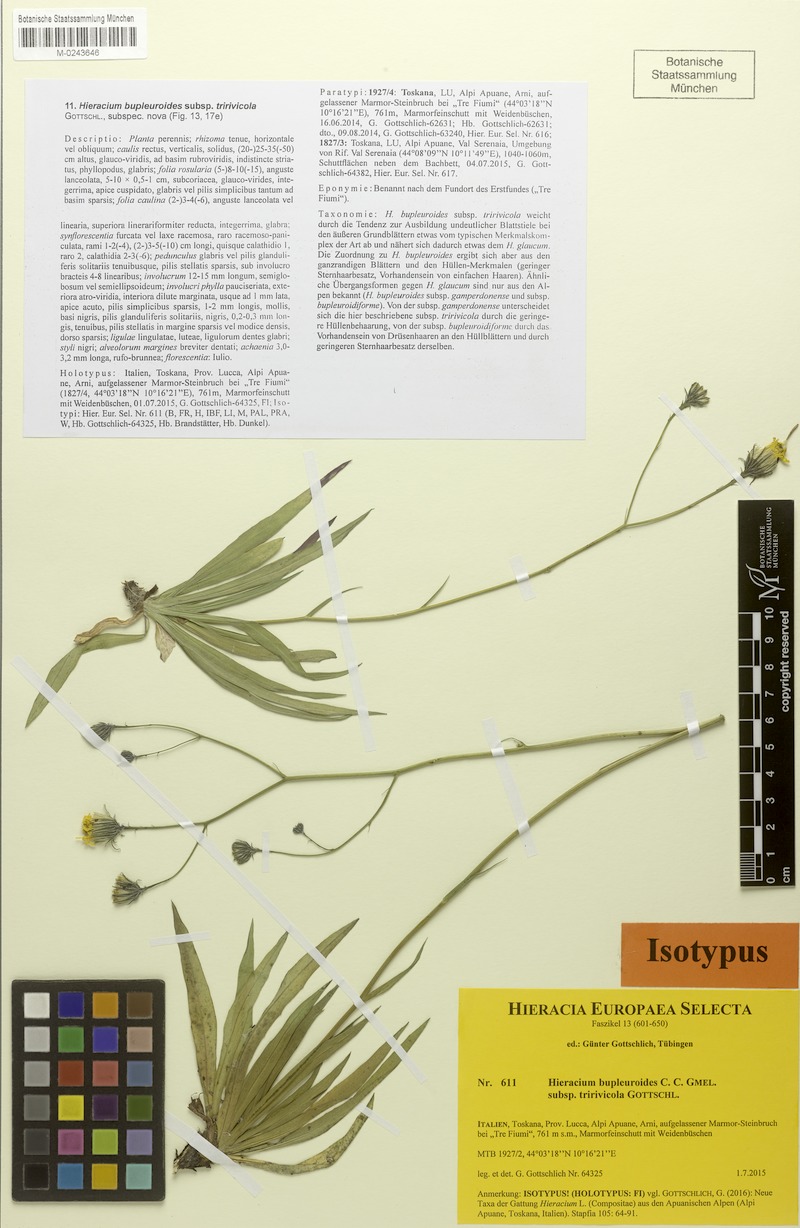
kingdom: Plantae
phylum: Tracheophyta
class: Magnoliopsida
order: Asterales
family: Asteraceae
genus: Hieracium
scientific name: Hieracium bupleuroides
